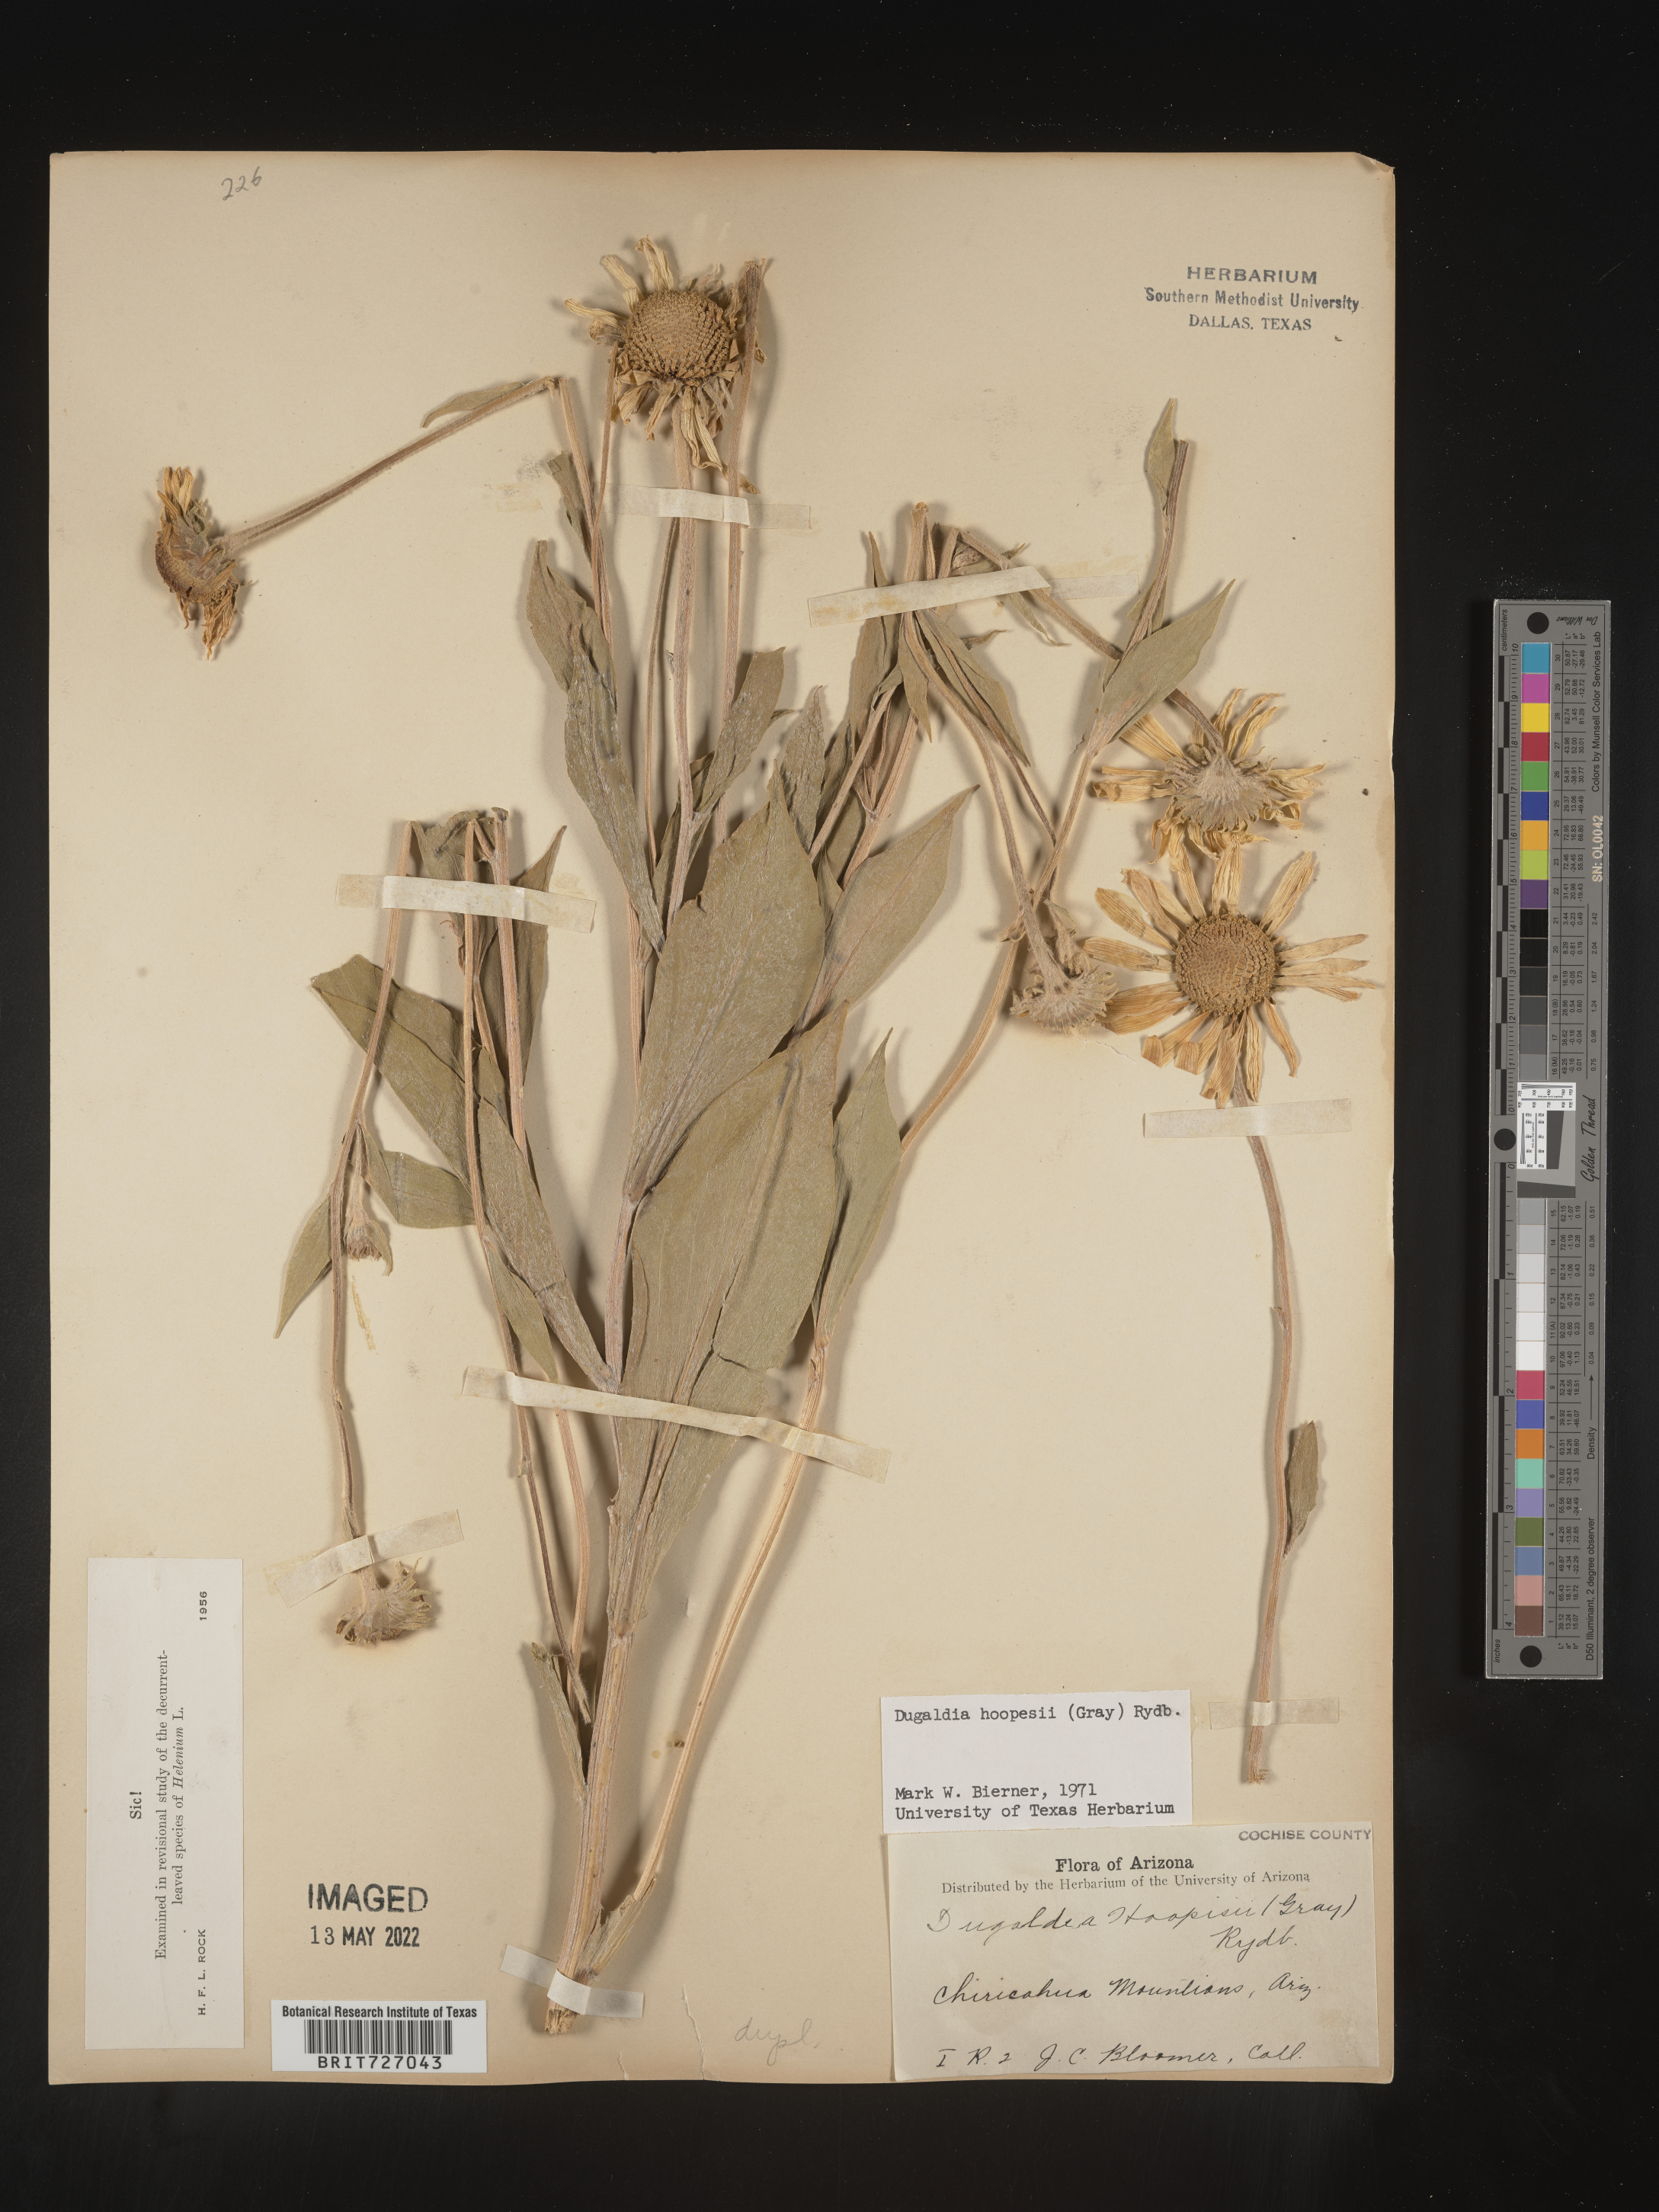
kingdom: Plantae
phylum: Tracheophyta
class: Magnoliopsida
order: Asterales
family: Asteraceae
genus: Hymenoxys
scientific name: Hymenoxys hoopesii
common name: Orange-sneezeweed
